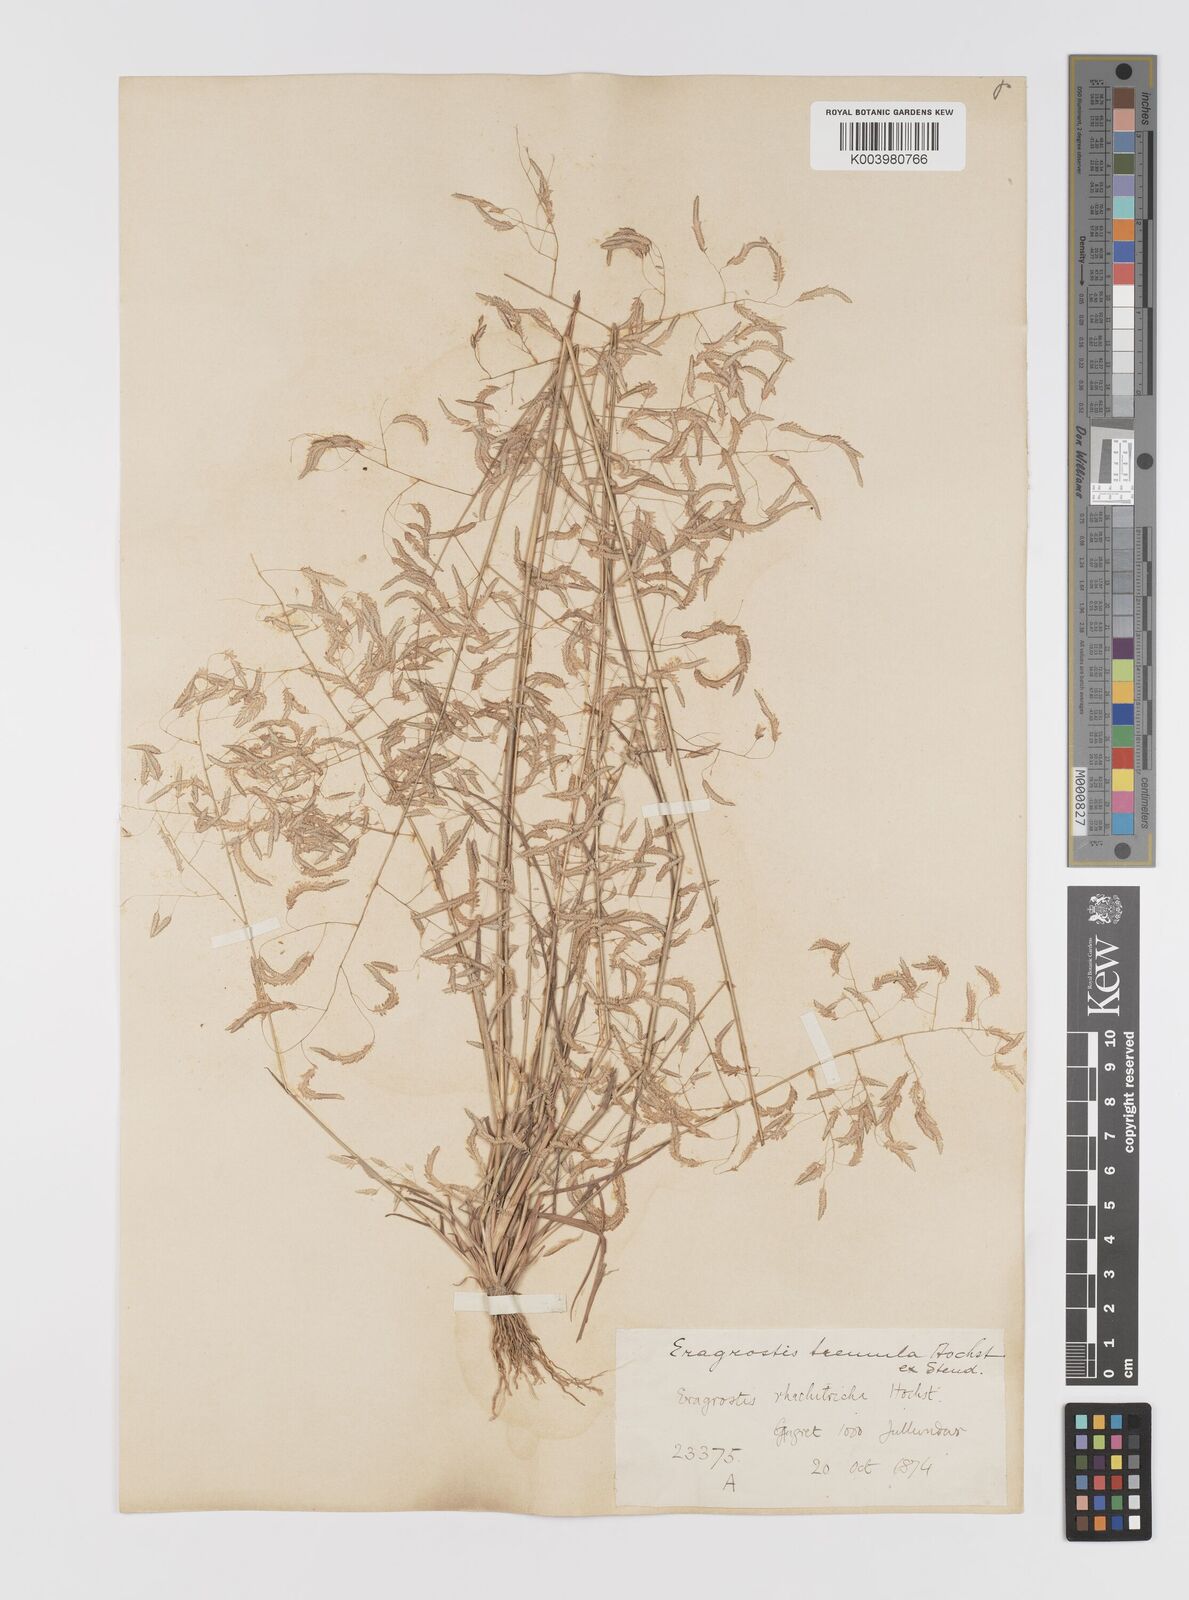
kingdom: Plantae
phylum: Tracheophyta
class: Liliopsida
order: Poales
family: Poaceae
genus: Eragrostis
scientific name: Eragrostis tremula
